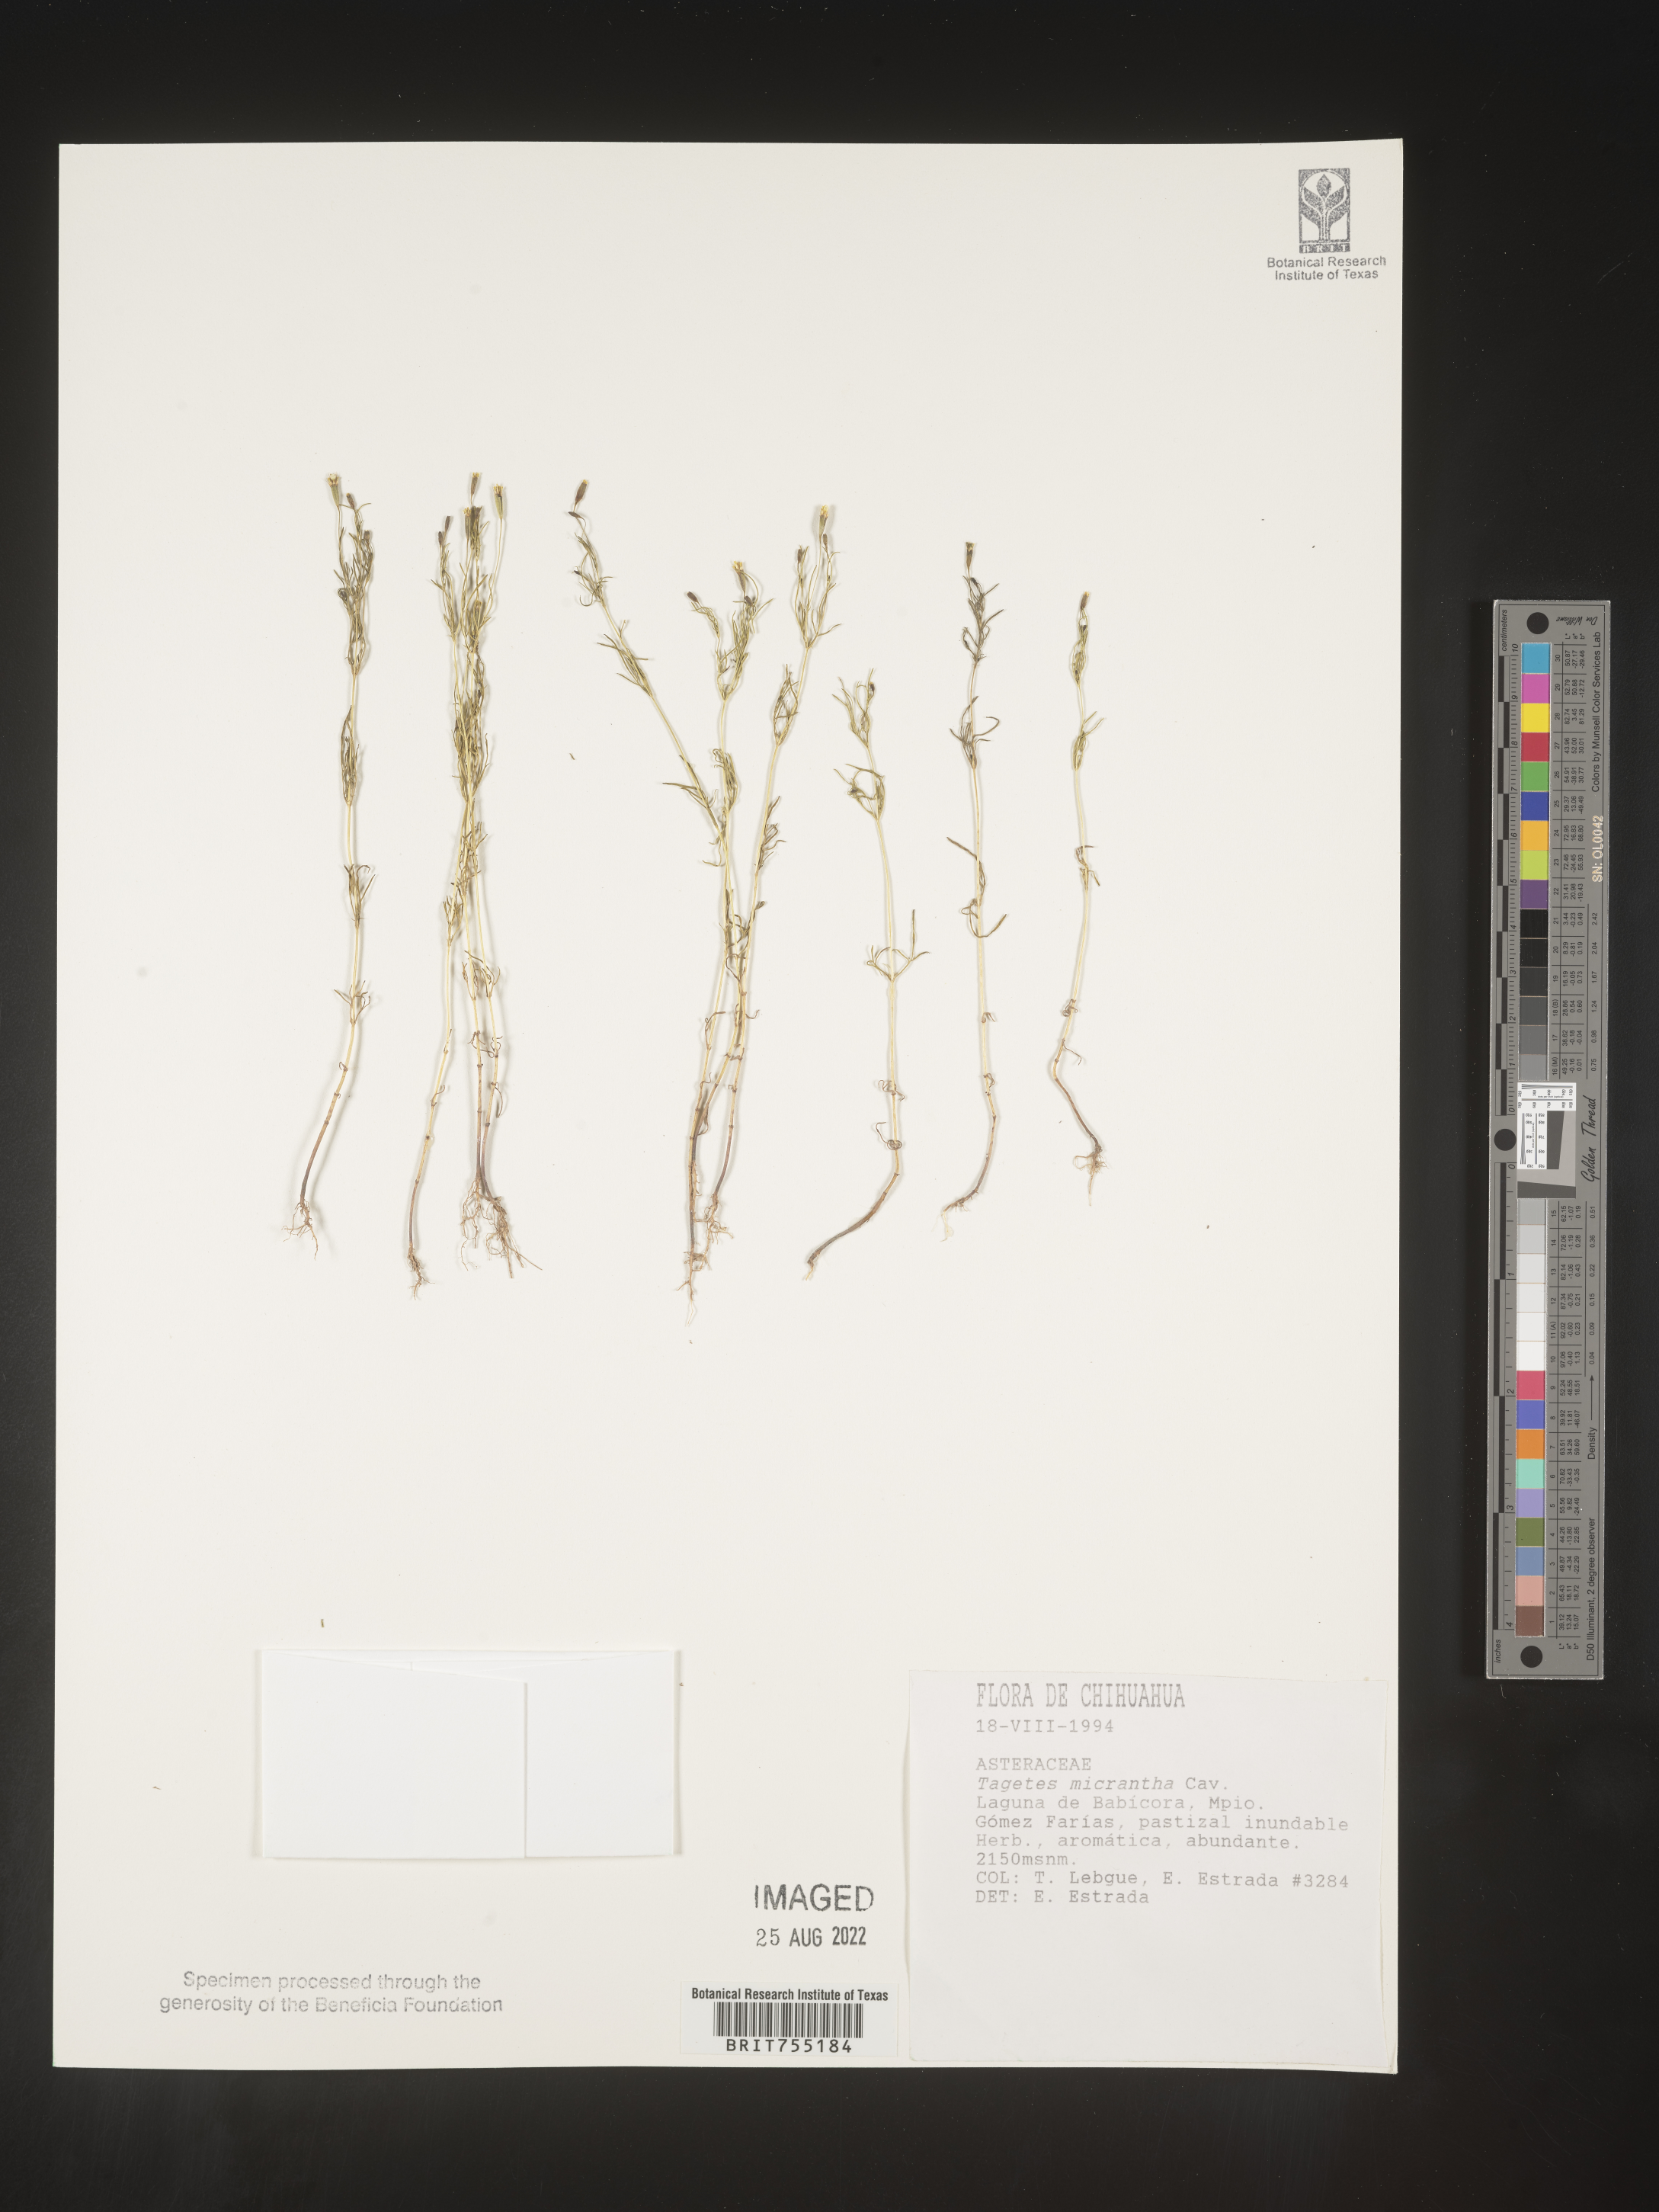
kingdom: Plantae
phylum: Tracheophyta
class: Magnoliopsida
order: Asterales
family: Asteraceae
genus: Tagetes
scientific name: Tagetes
